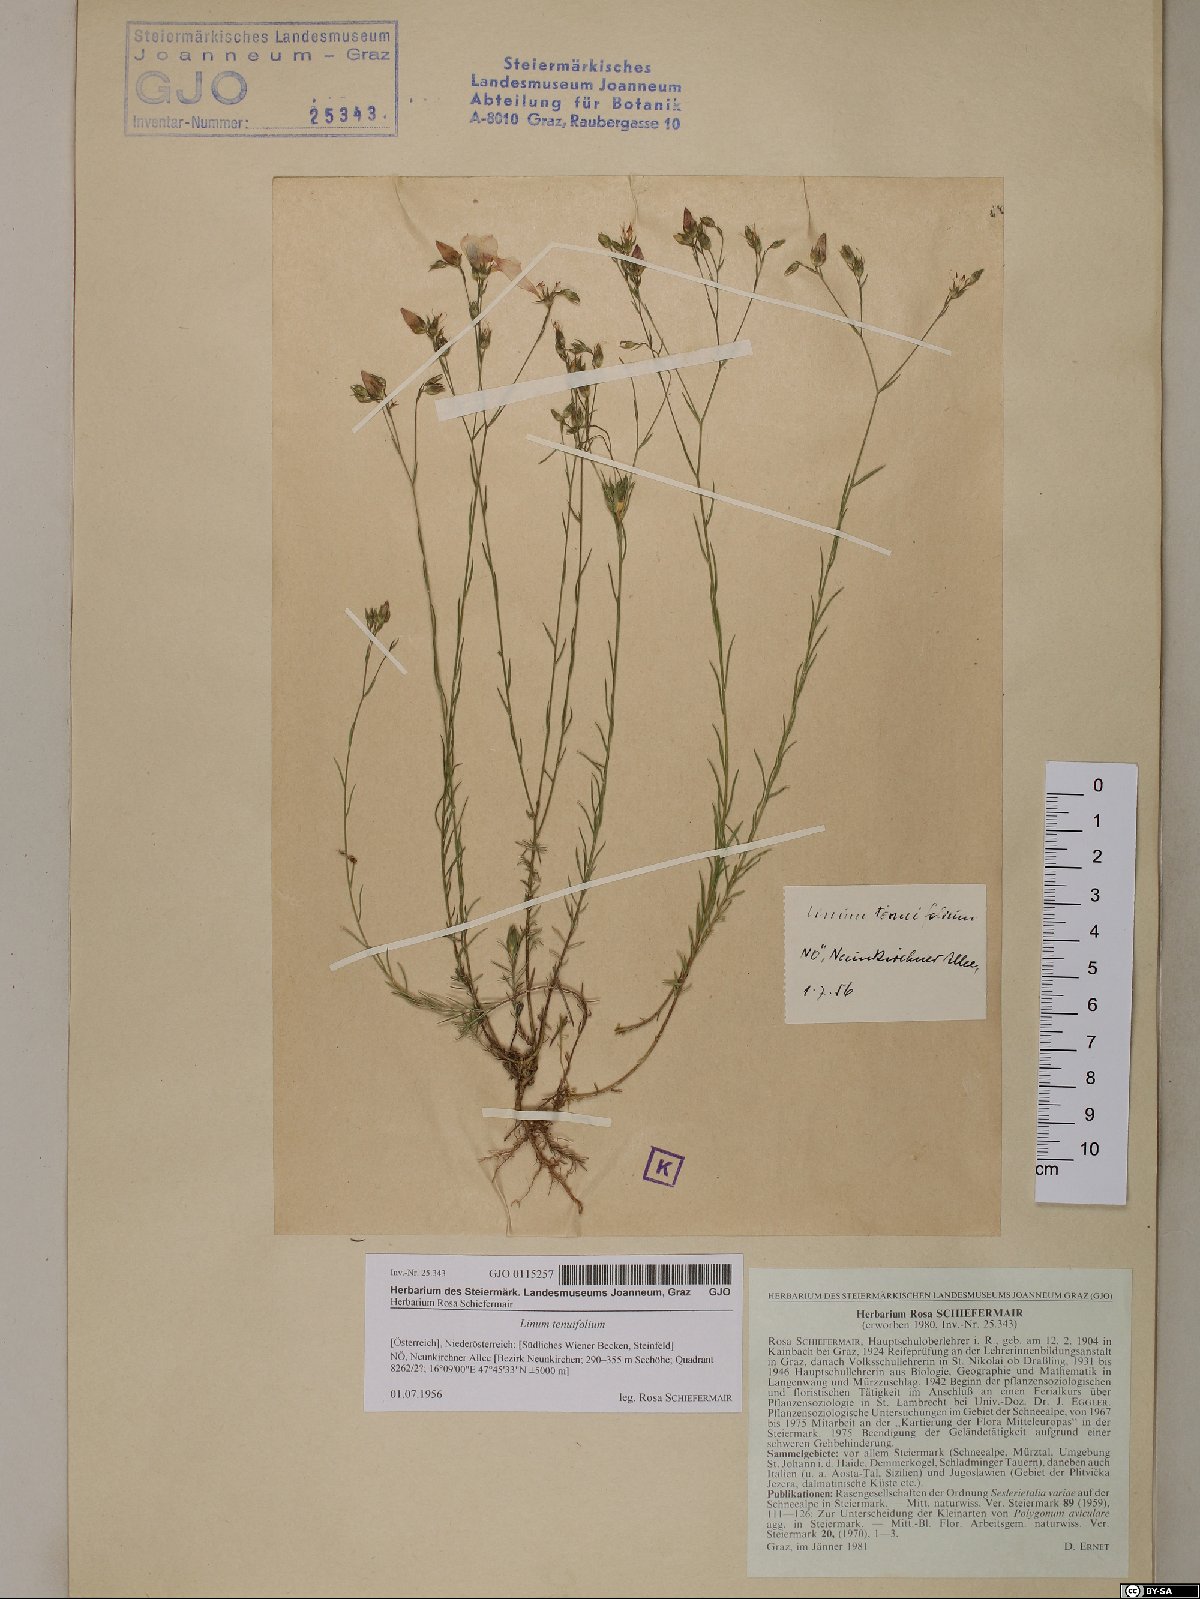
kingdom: Plantae
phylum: Tracheophyta
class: Magnoliopsida
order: Malpighiales
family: Linaceae
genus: Linum
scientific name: Linum tenuifolium
